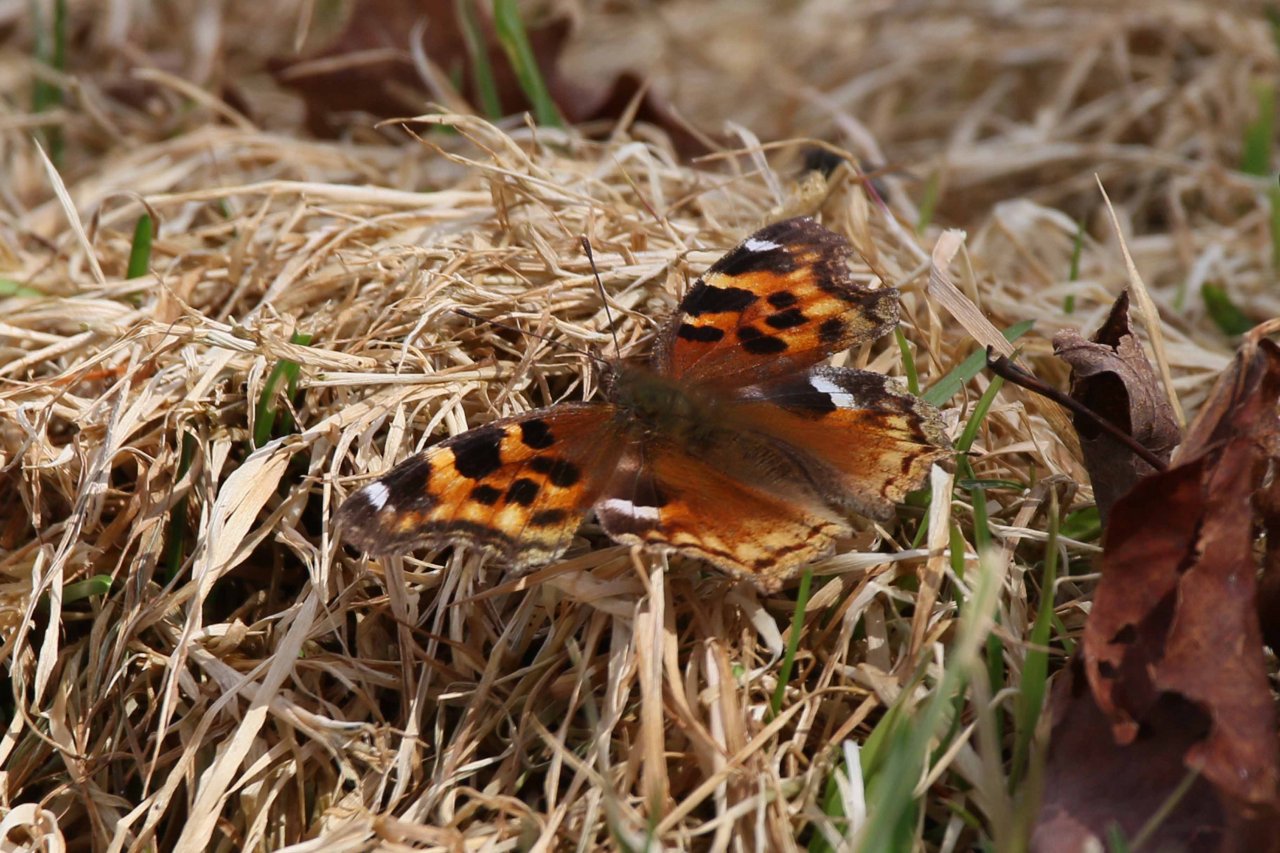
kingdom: Animalia
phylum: Arthropoda
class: Insecta
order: Lepidoptera
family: Nymphalidae
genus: Polygonia
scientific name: Polygonia vaualbum
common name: Compton Tortoiseshell
